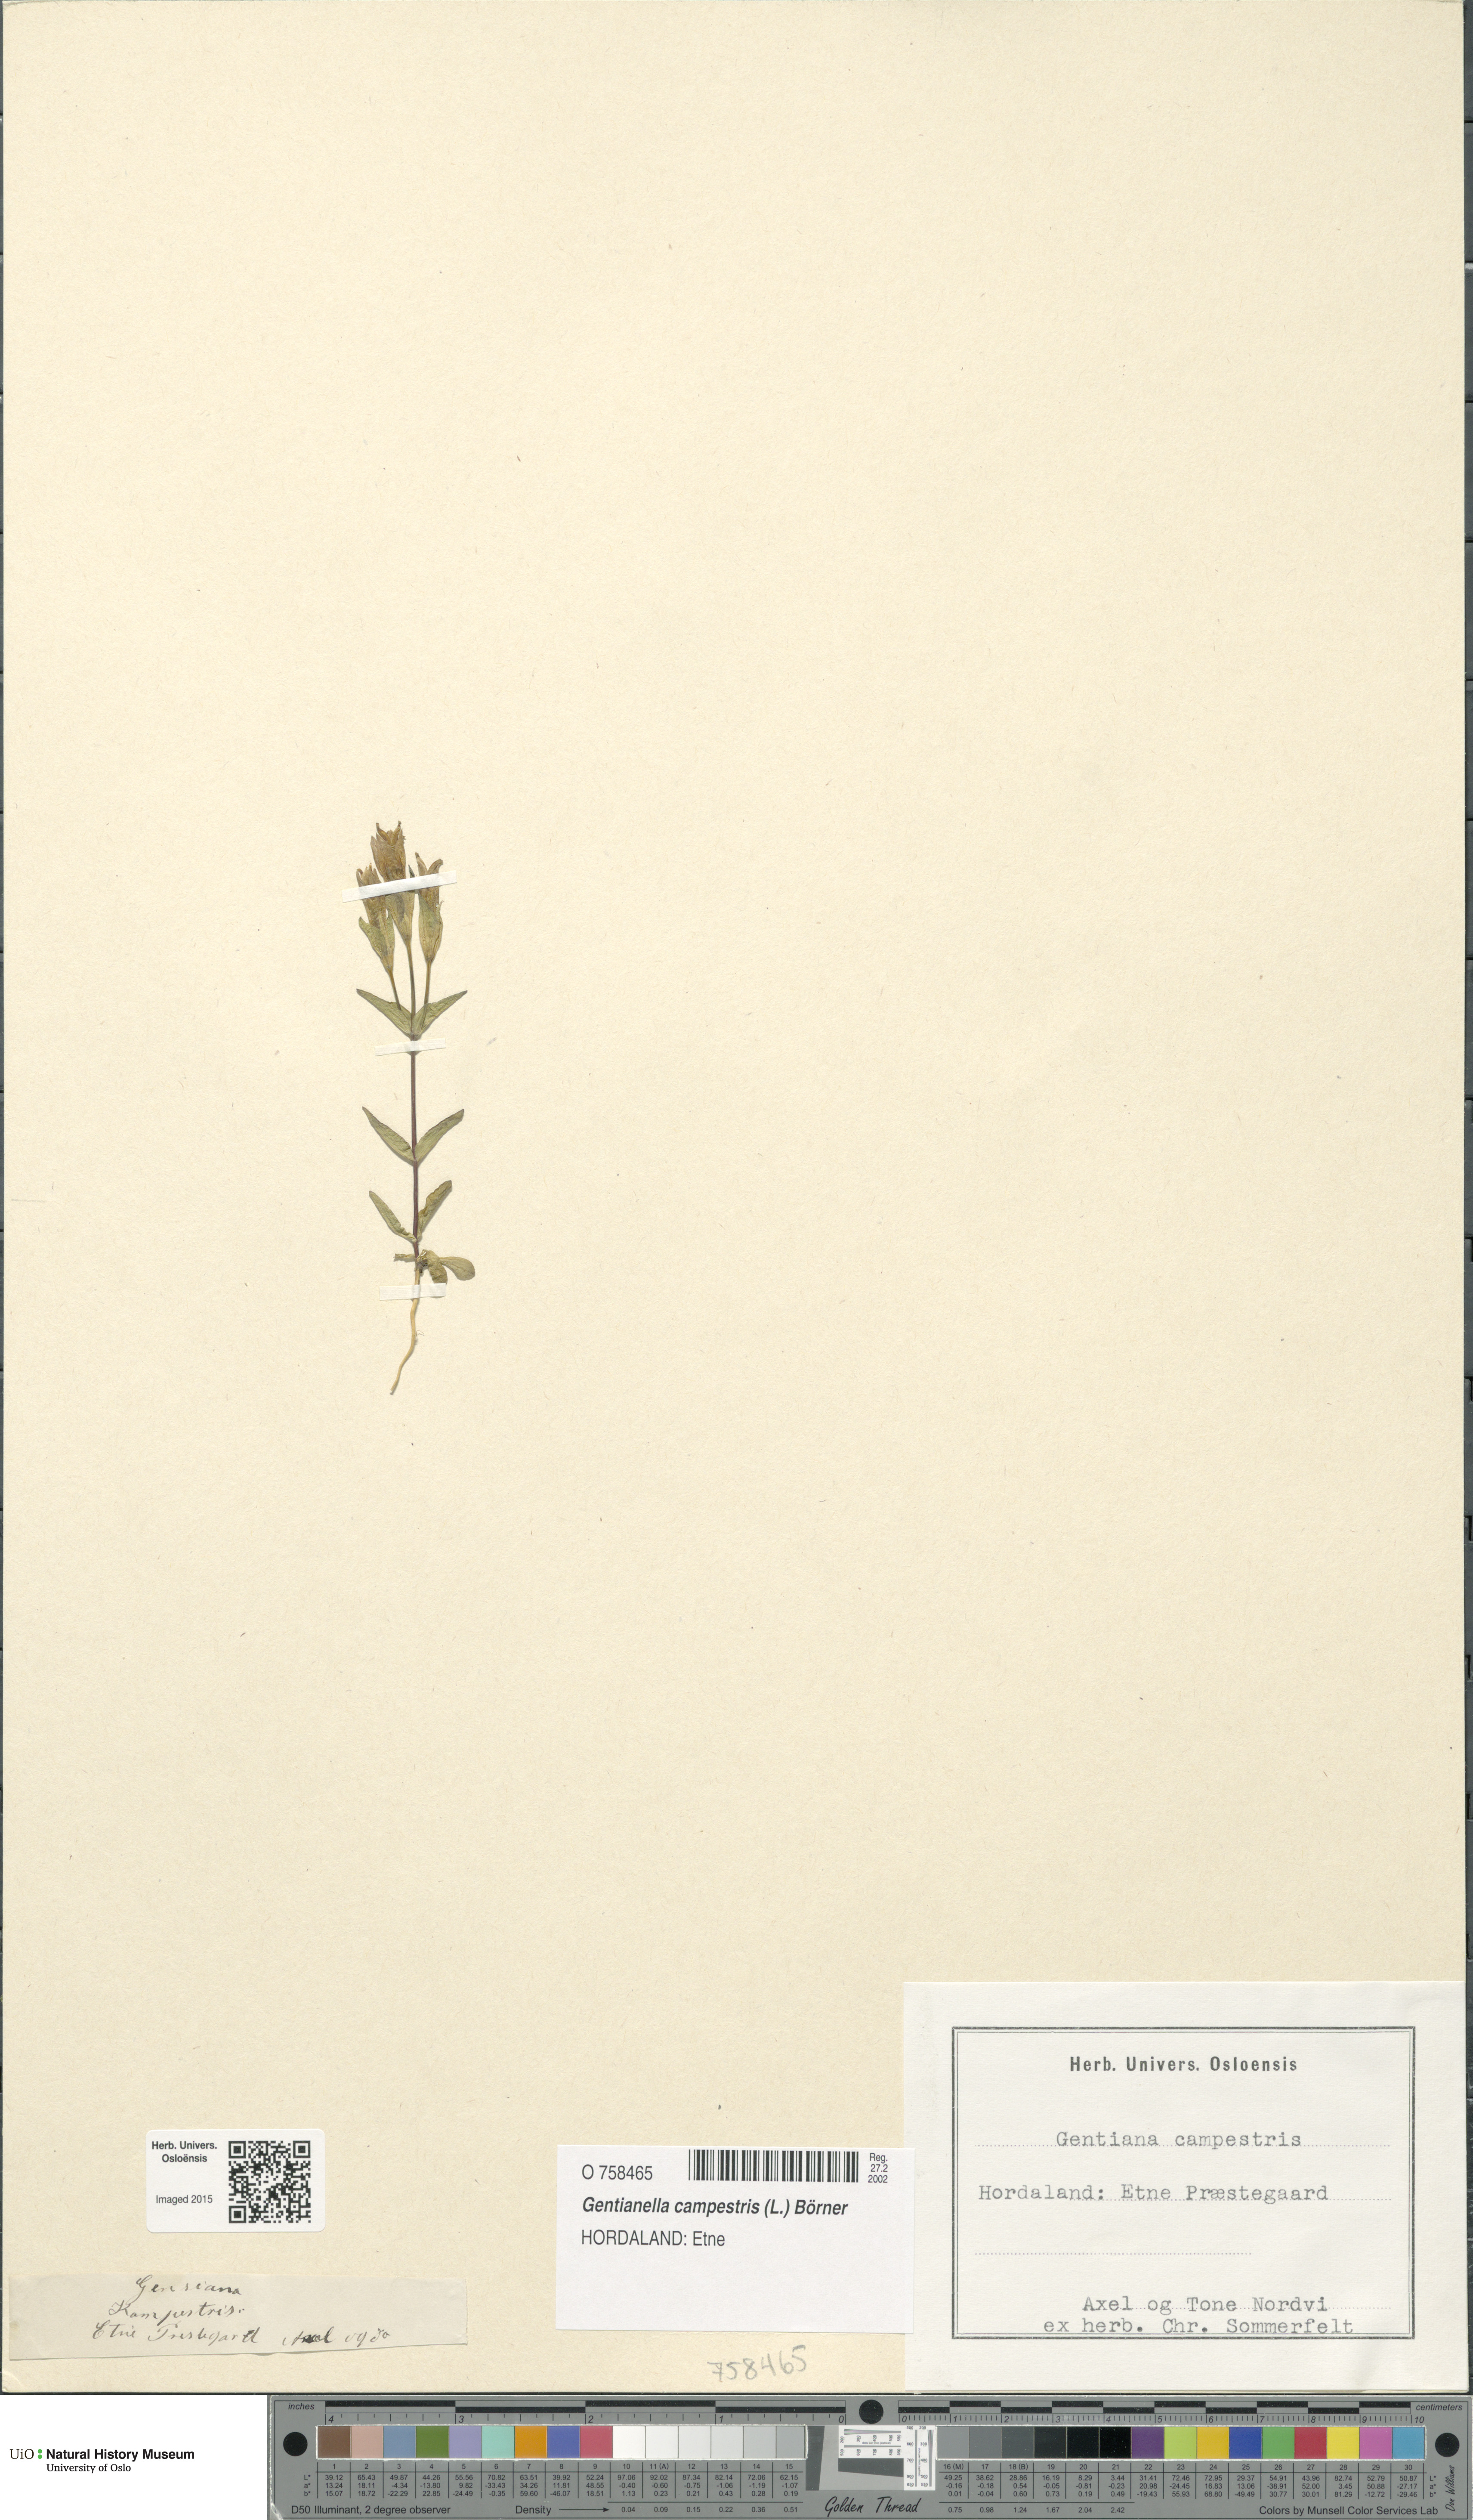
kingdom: Plantae
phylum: Tracheophyta
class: Magnoliopsida
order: Gentianales
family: Gentianaceae
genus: Gentianella
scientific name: Gentianella campestris
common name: Field gentian
